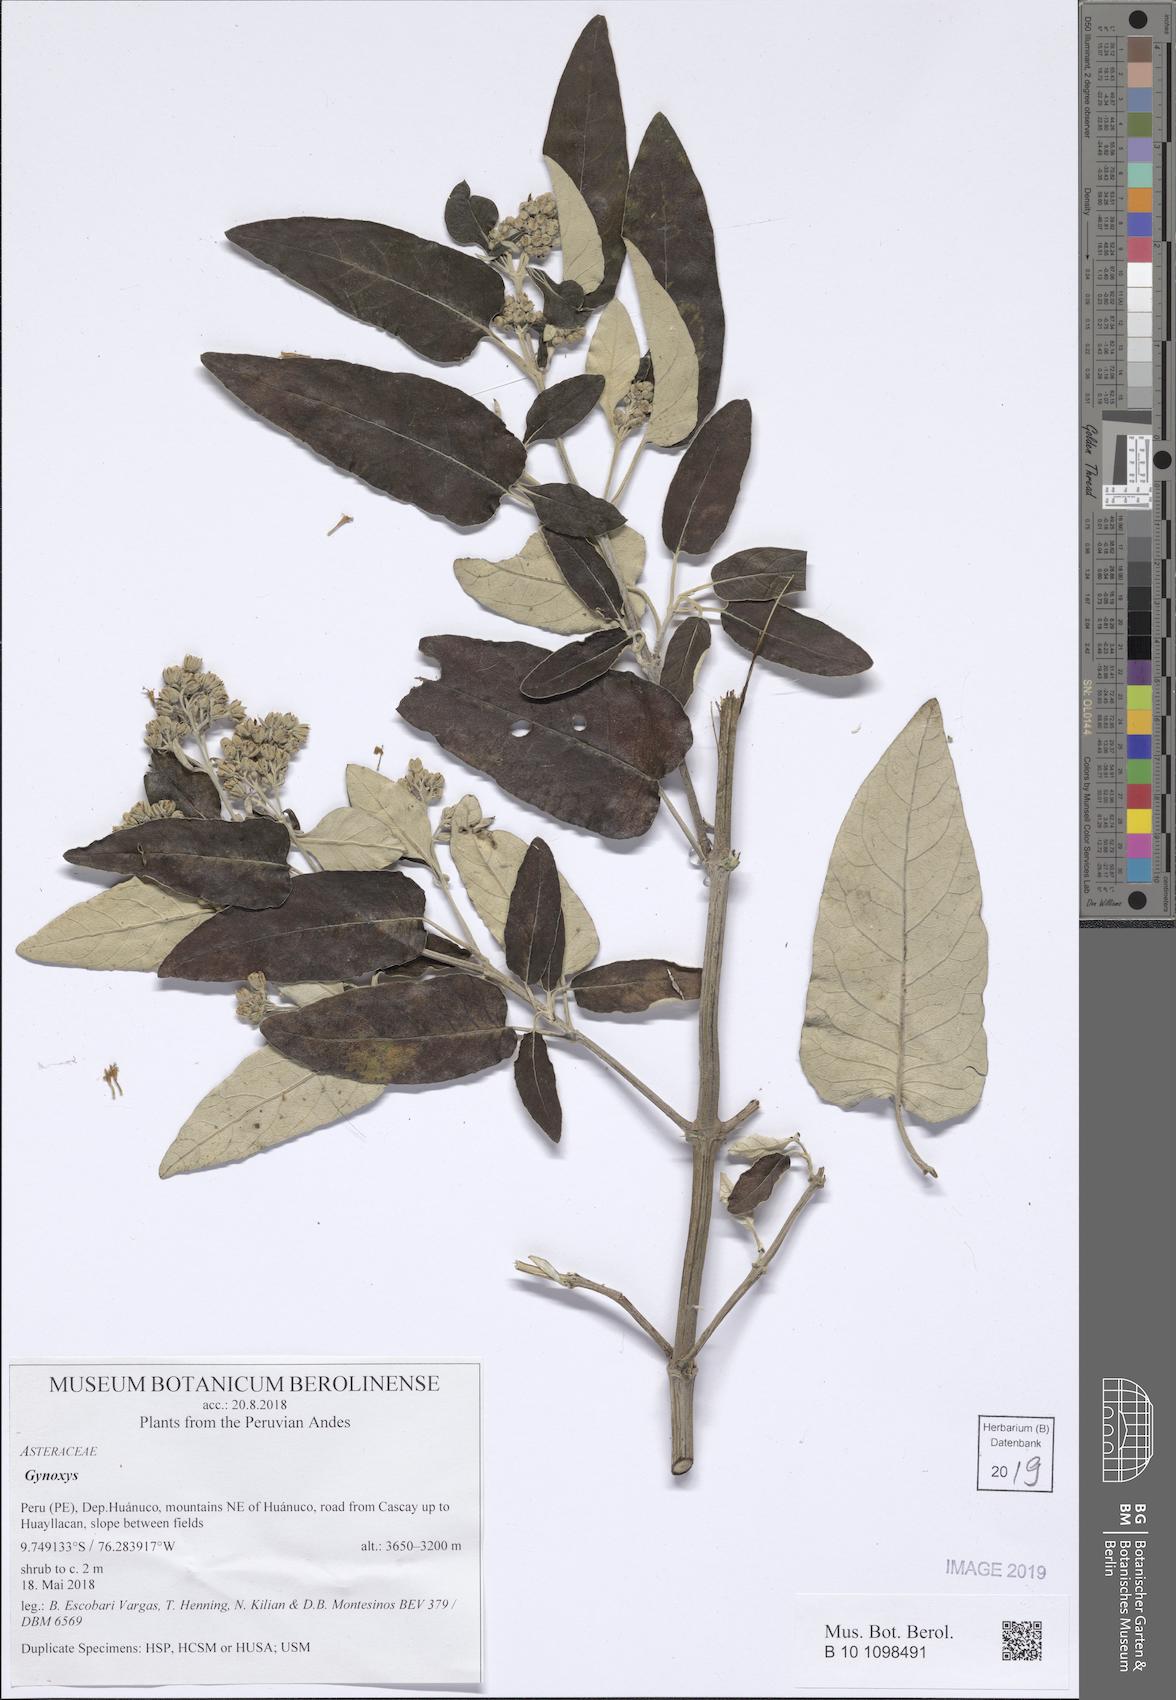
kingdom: Plantae
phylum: Tracheophyta
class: Magnoliopsida
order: Asterales
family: Asteraceae
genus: Gynoxys
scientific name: Gynoxys
